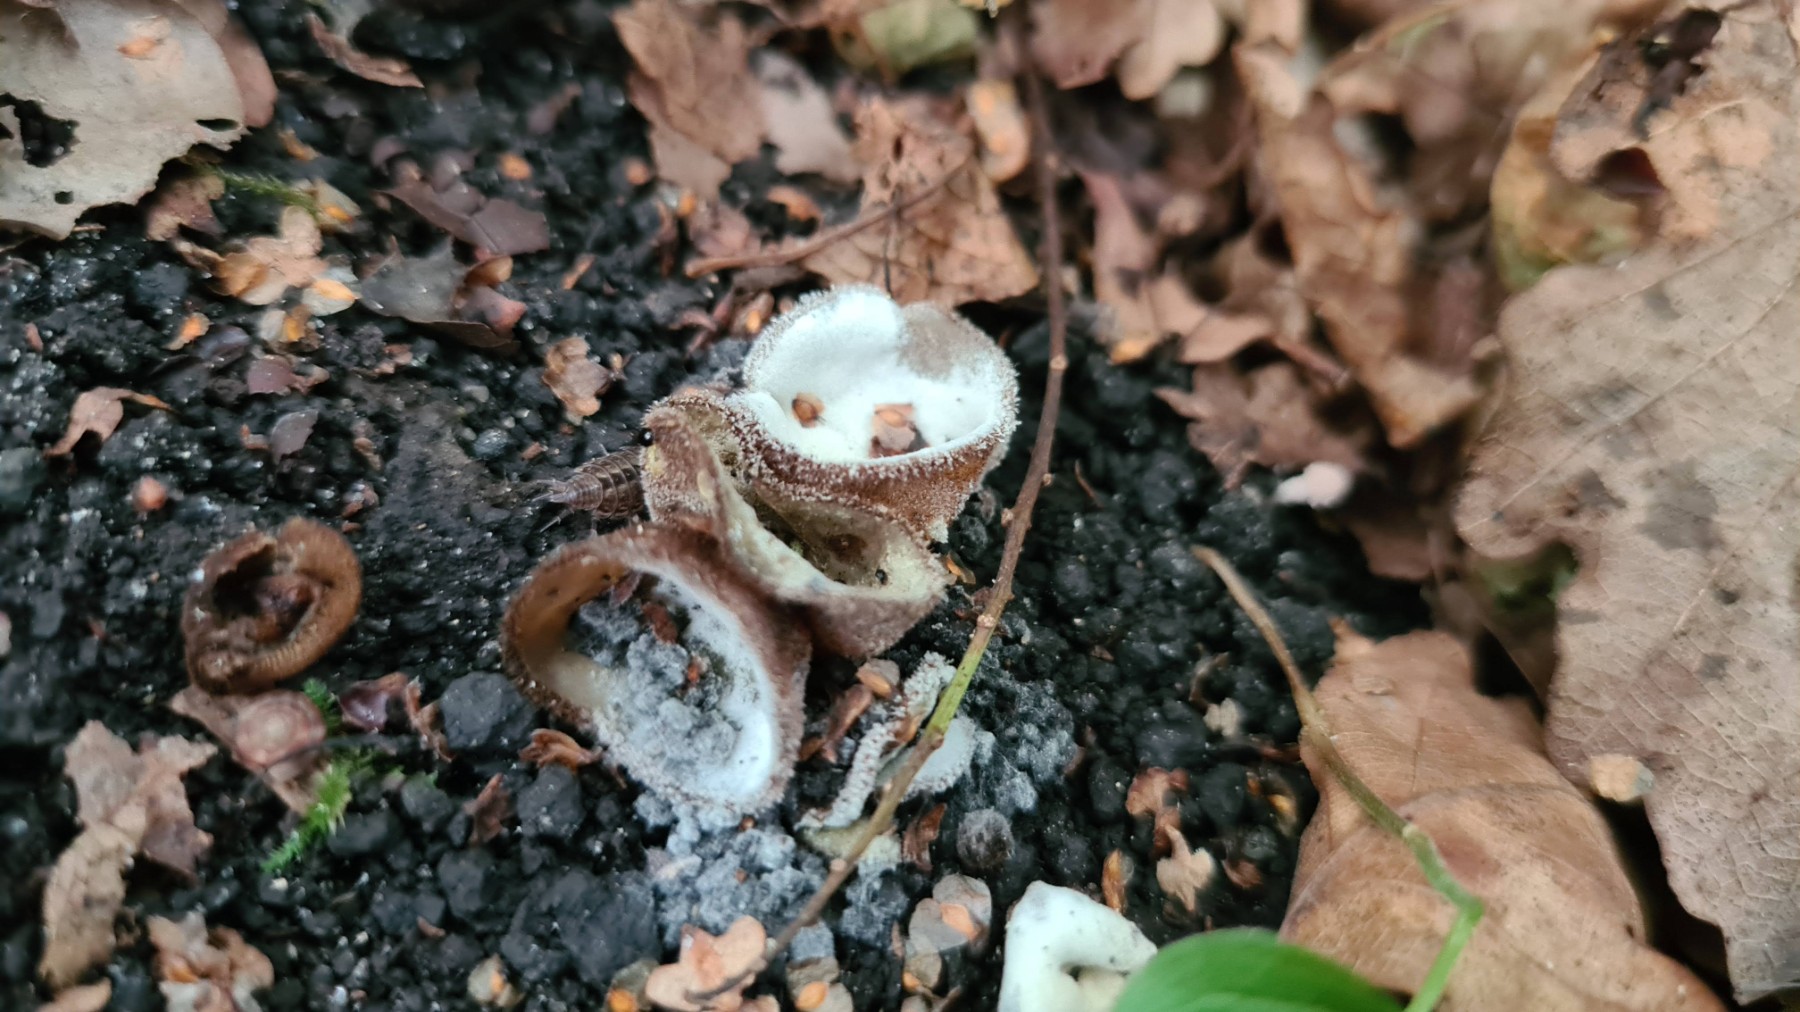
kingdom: Fungi
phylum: Ascomycota
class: Sordariomycetes
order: Hypocreales
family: Hypocreaceae
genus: Hypomyces
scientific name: Hypomyces cervinus
